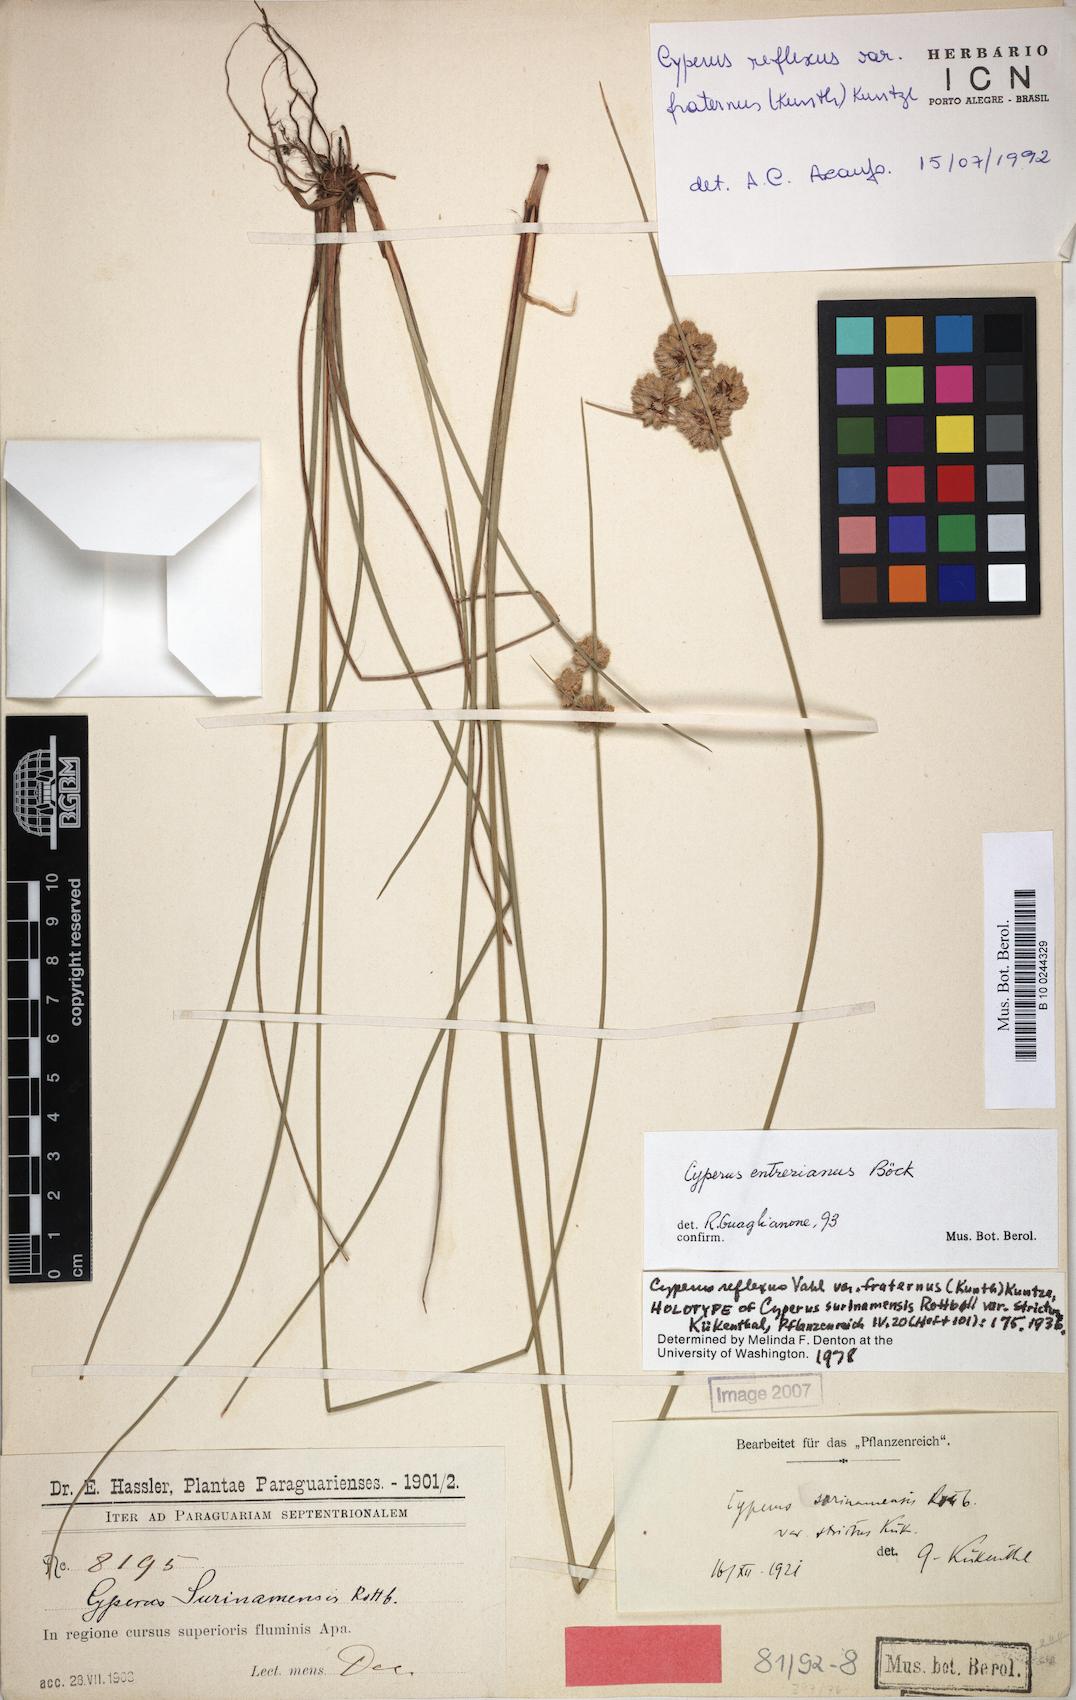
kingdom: Plantae
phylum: Tracheophyta
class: Liliopsida
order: Poales
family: Cyperaceae
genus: Cyperus
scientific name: Cyperus entrerianus
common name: Woodrush flatsedge
